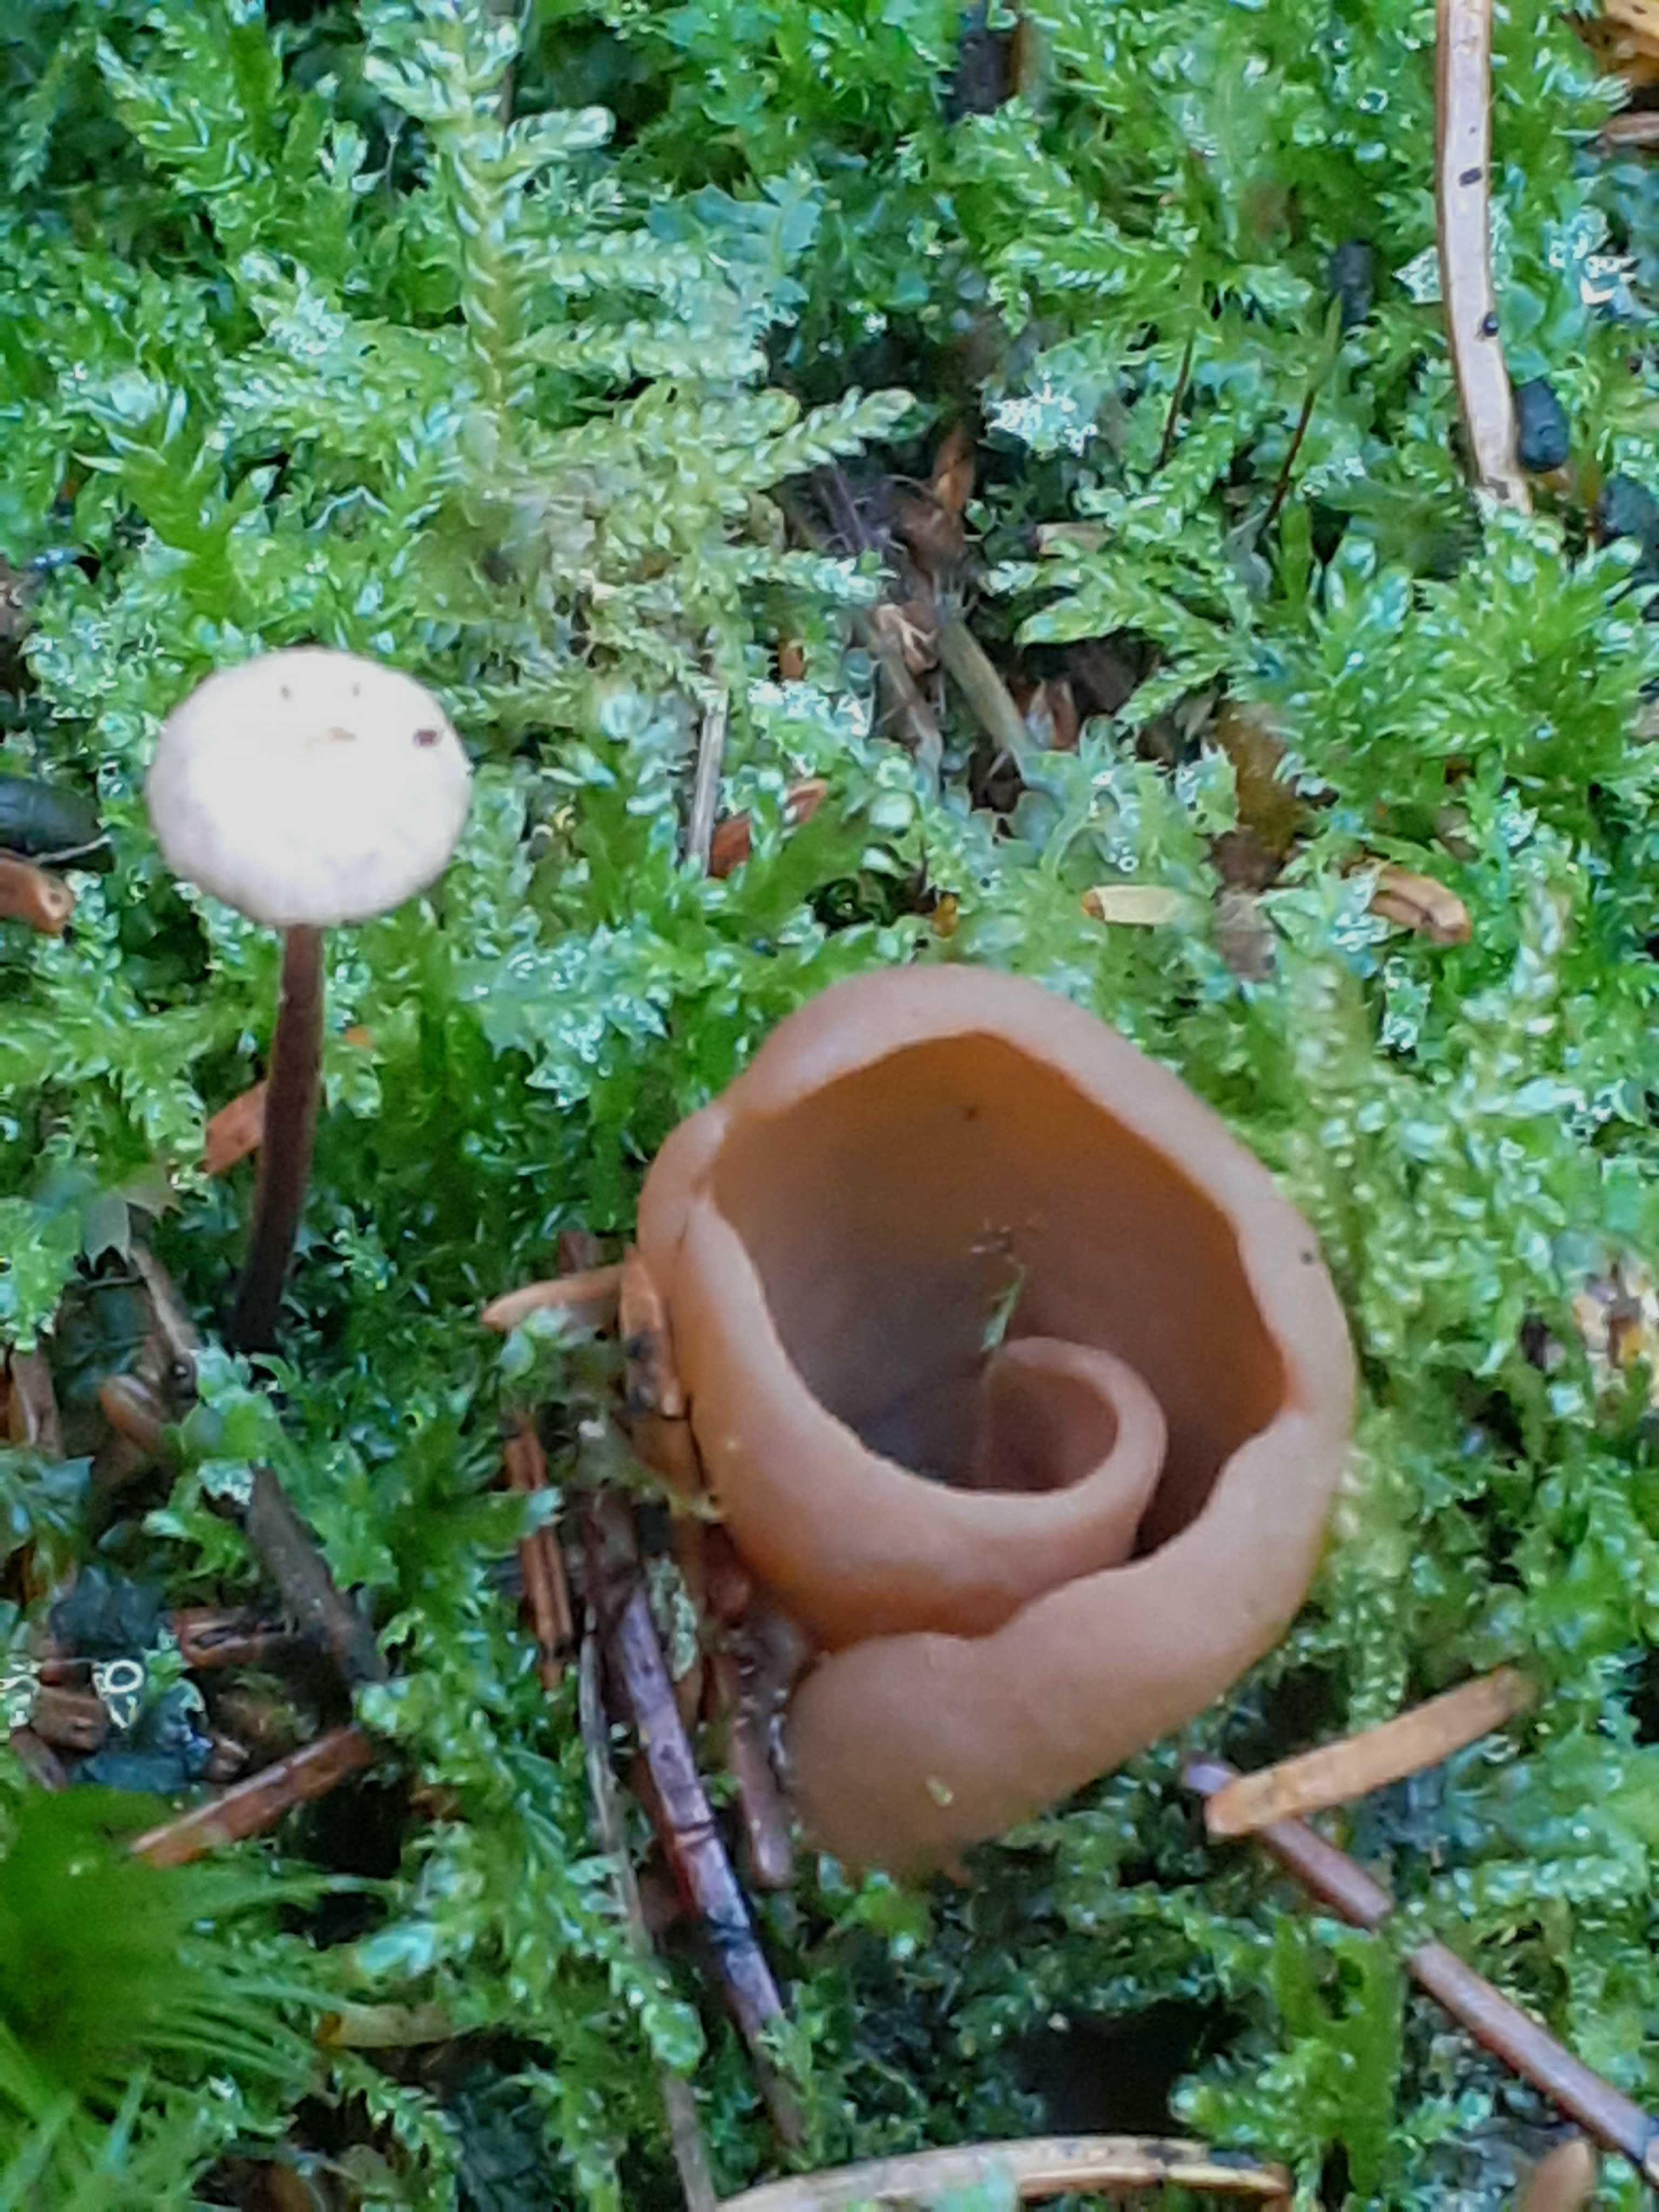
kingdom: Fungi
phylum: Ascomycota
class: Pezizomycetes
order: Pezizales
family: Otideaceae
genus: Otidea
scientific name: Otidea
